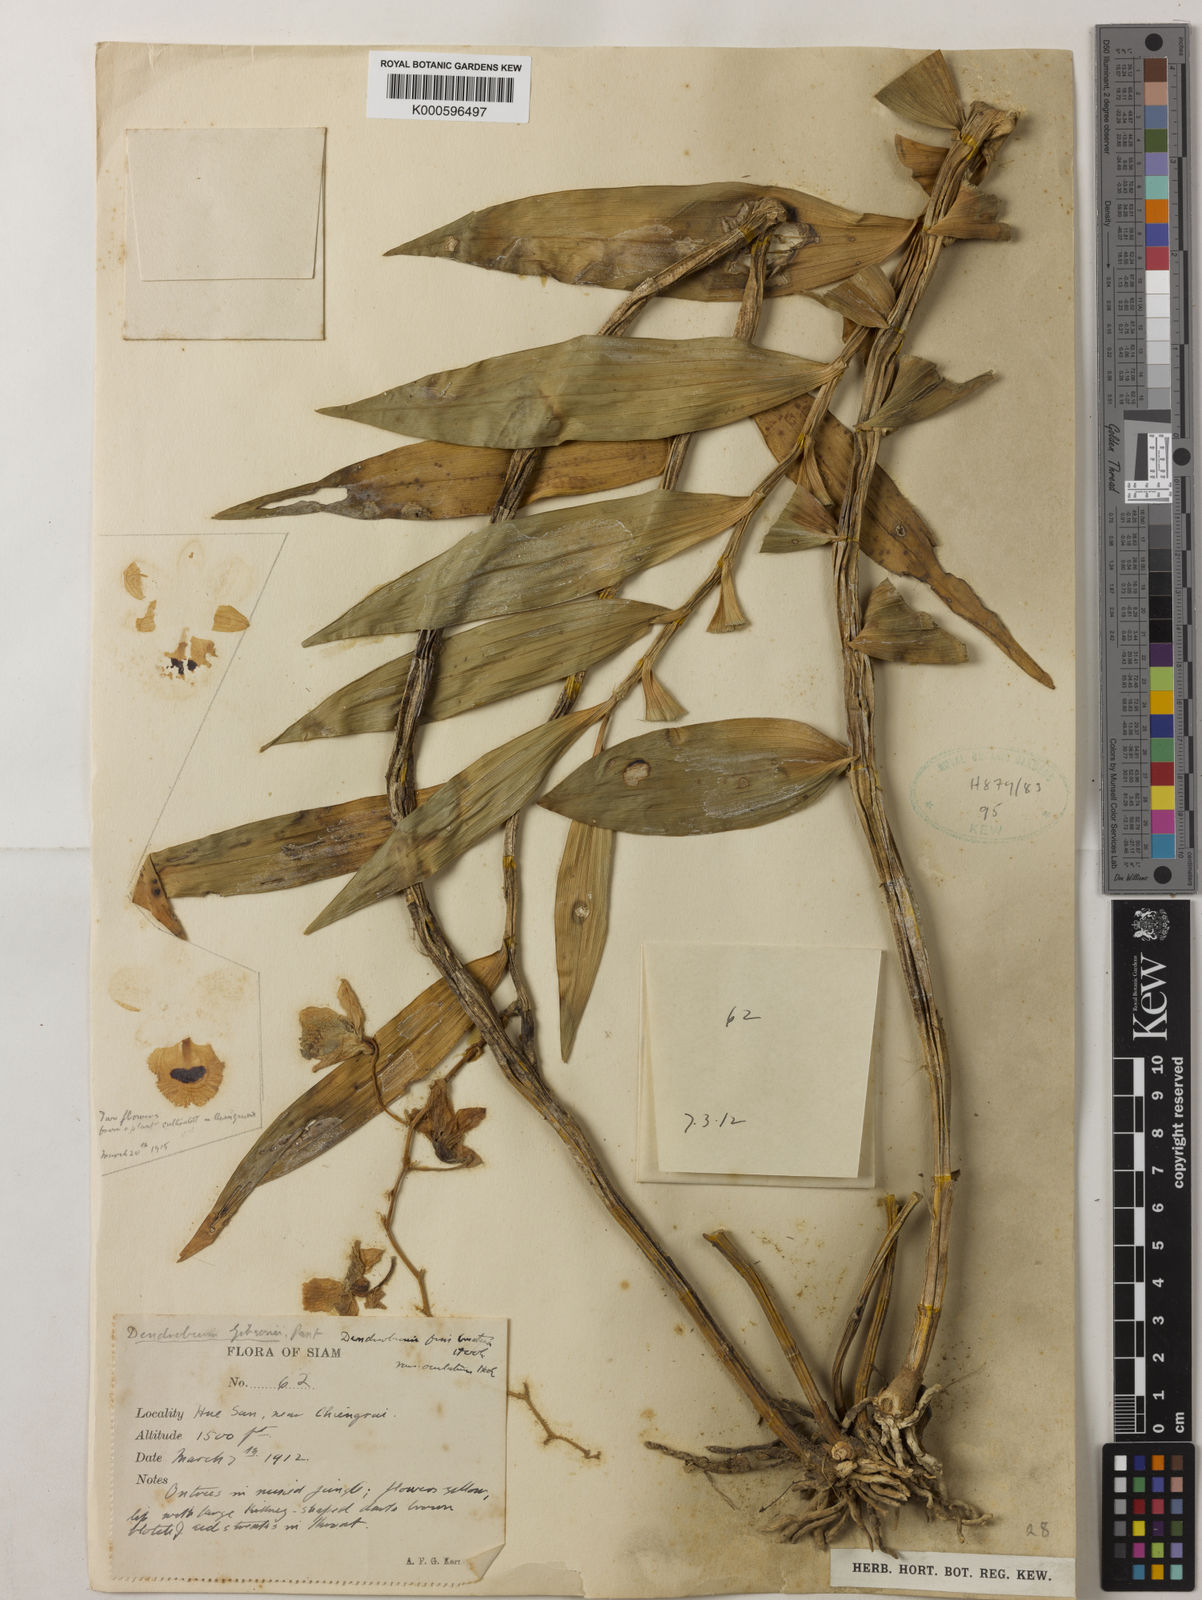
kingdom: Plantae
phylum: Tracheophyta
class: Liliopsida
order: Asparagales
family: Orchidaceae
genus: Dendrobium
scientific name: Dendrobium
